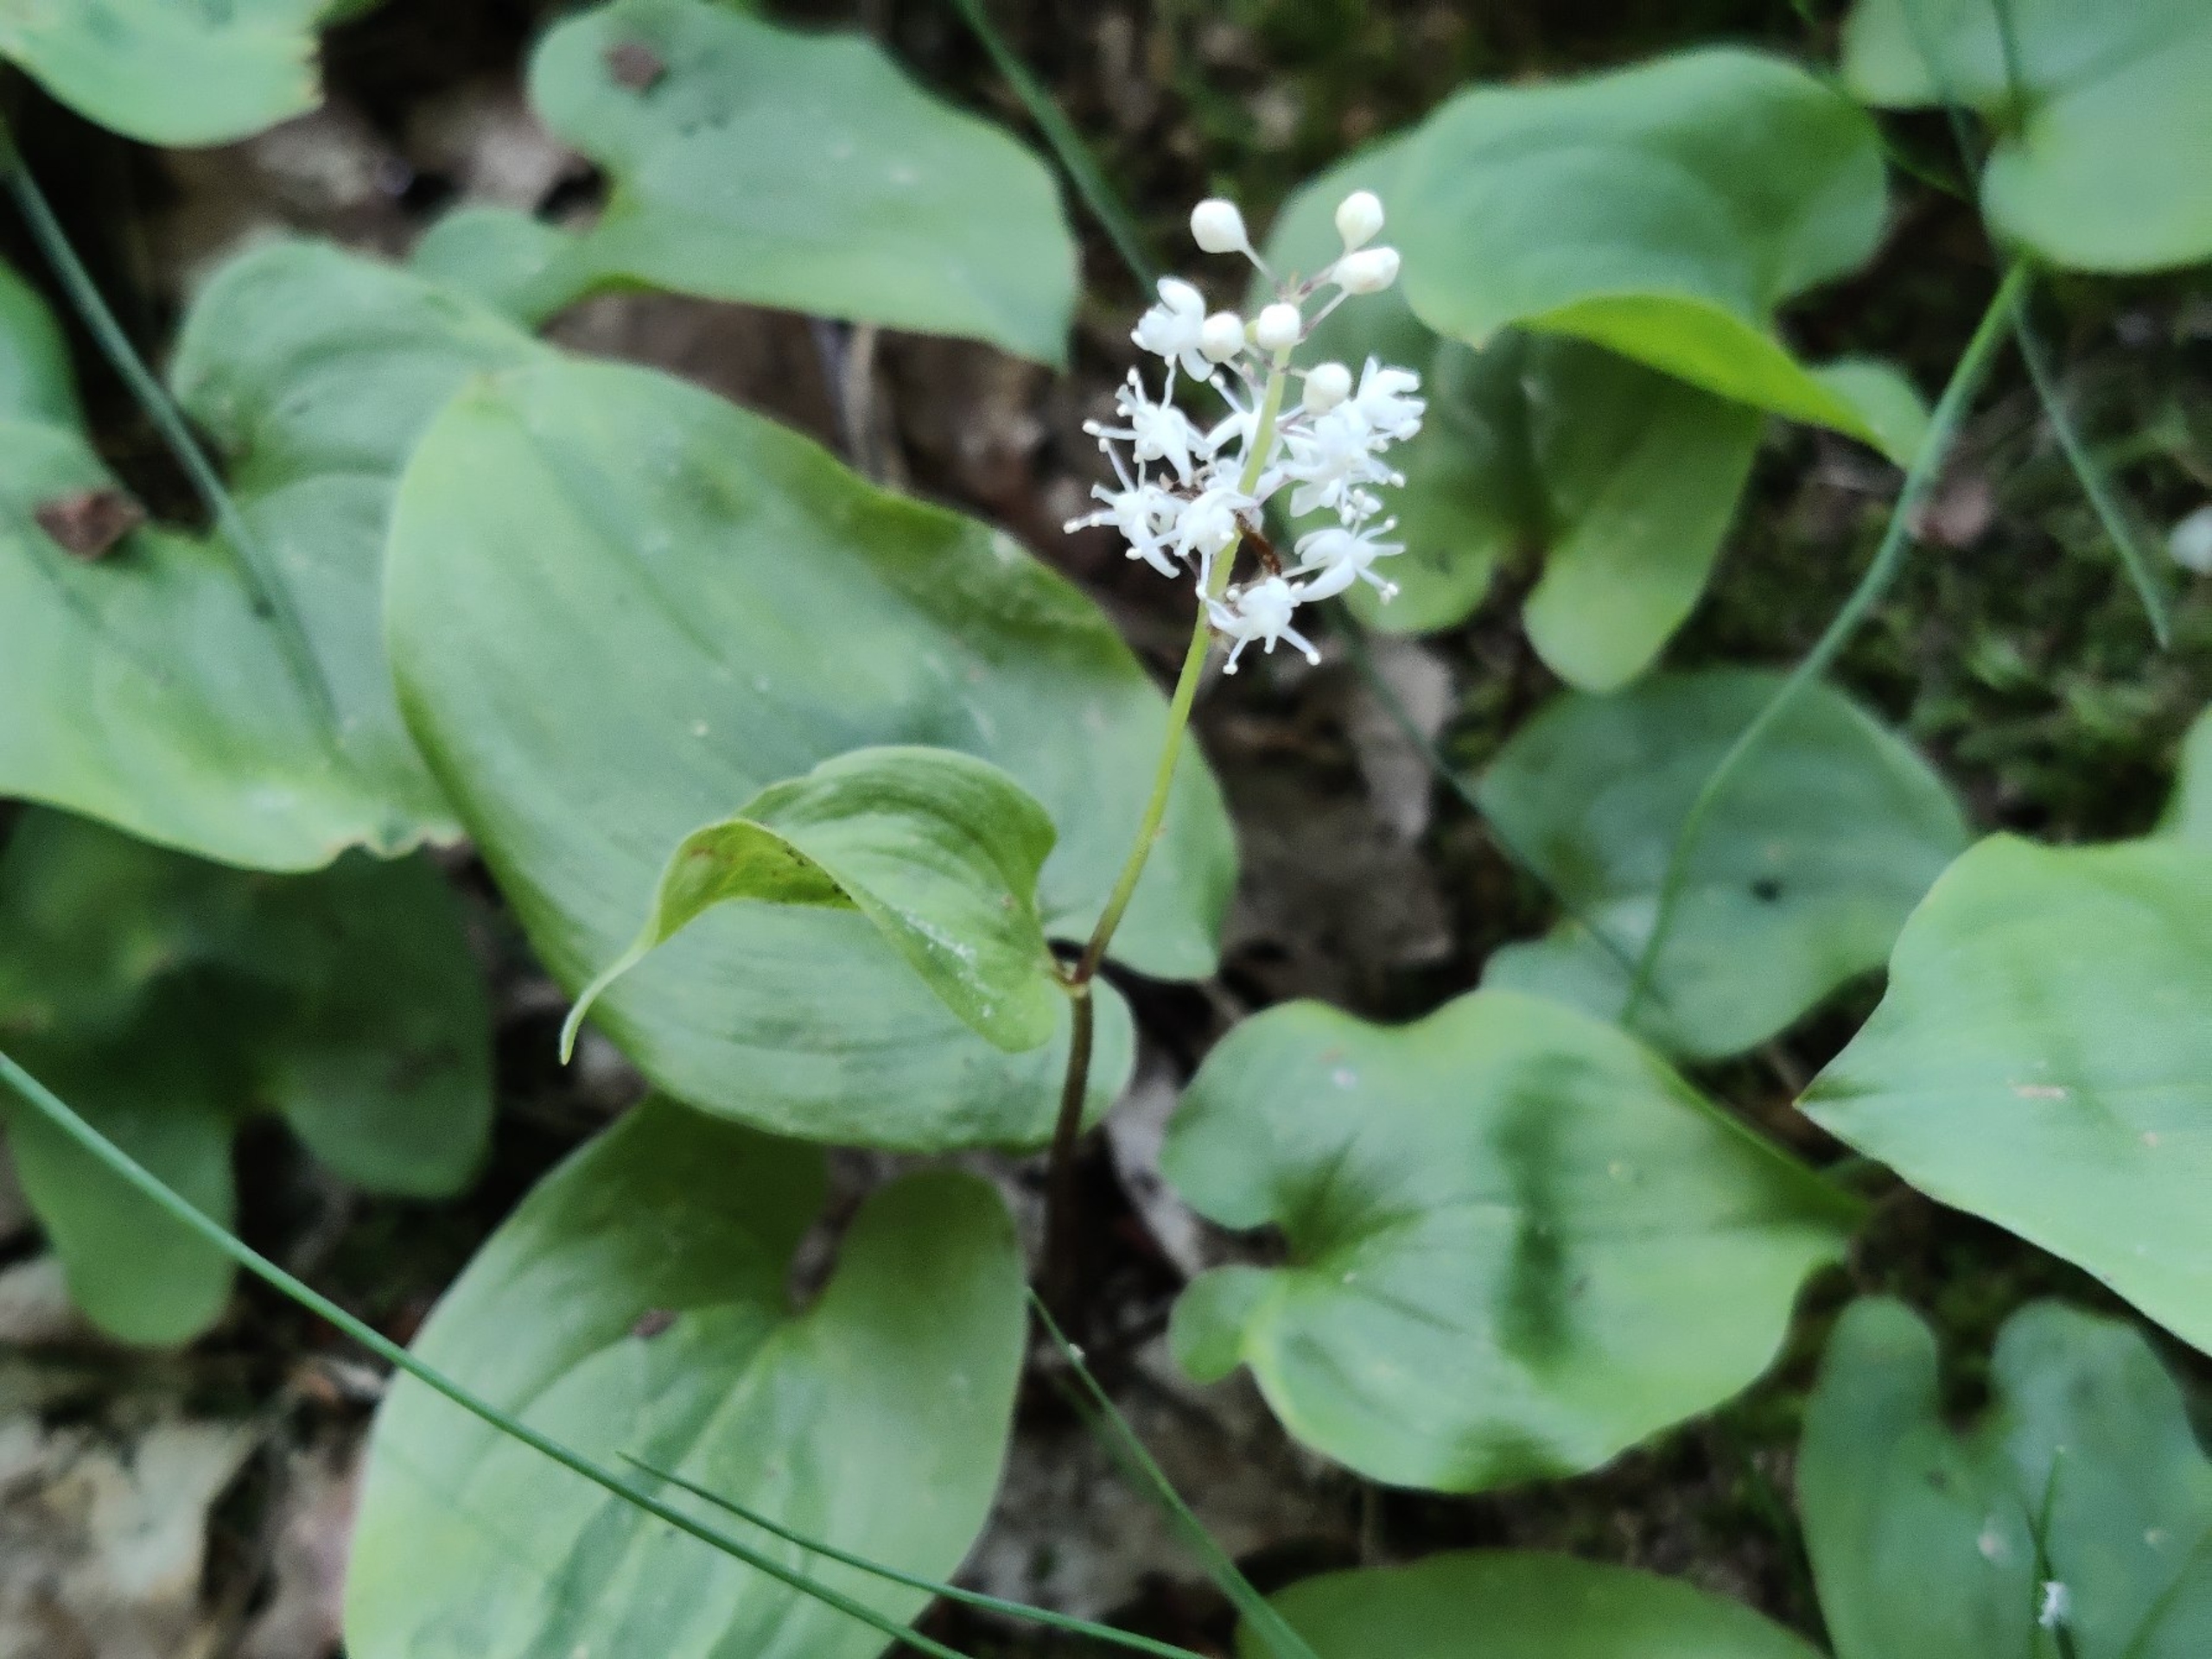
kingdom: Plantae
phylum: Tracheophyta
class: Liliopsida
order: Asparagales
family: Asparagaceae
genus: Maianthemum
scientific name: Maianthemum bifolium
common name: Majblomst
